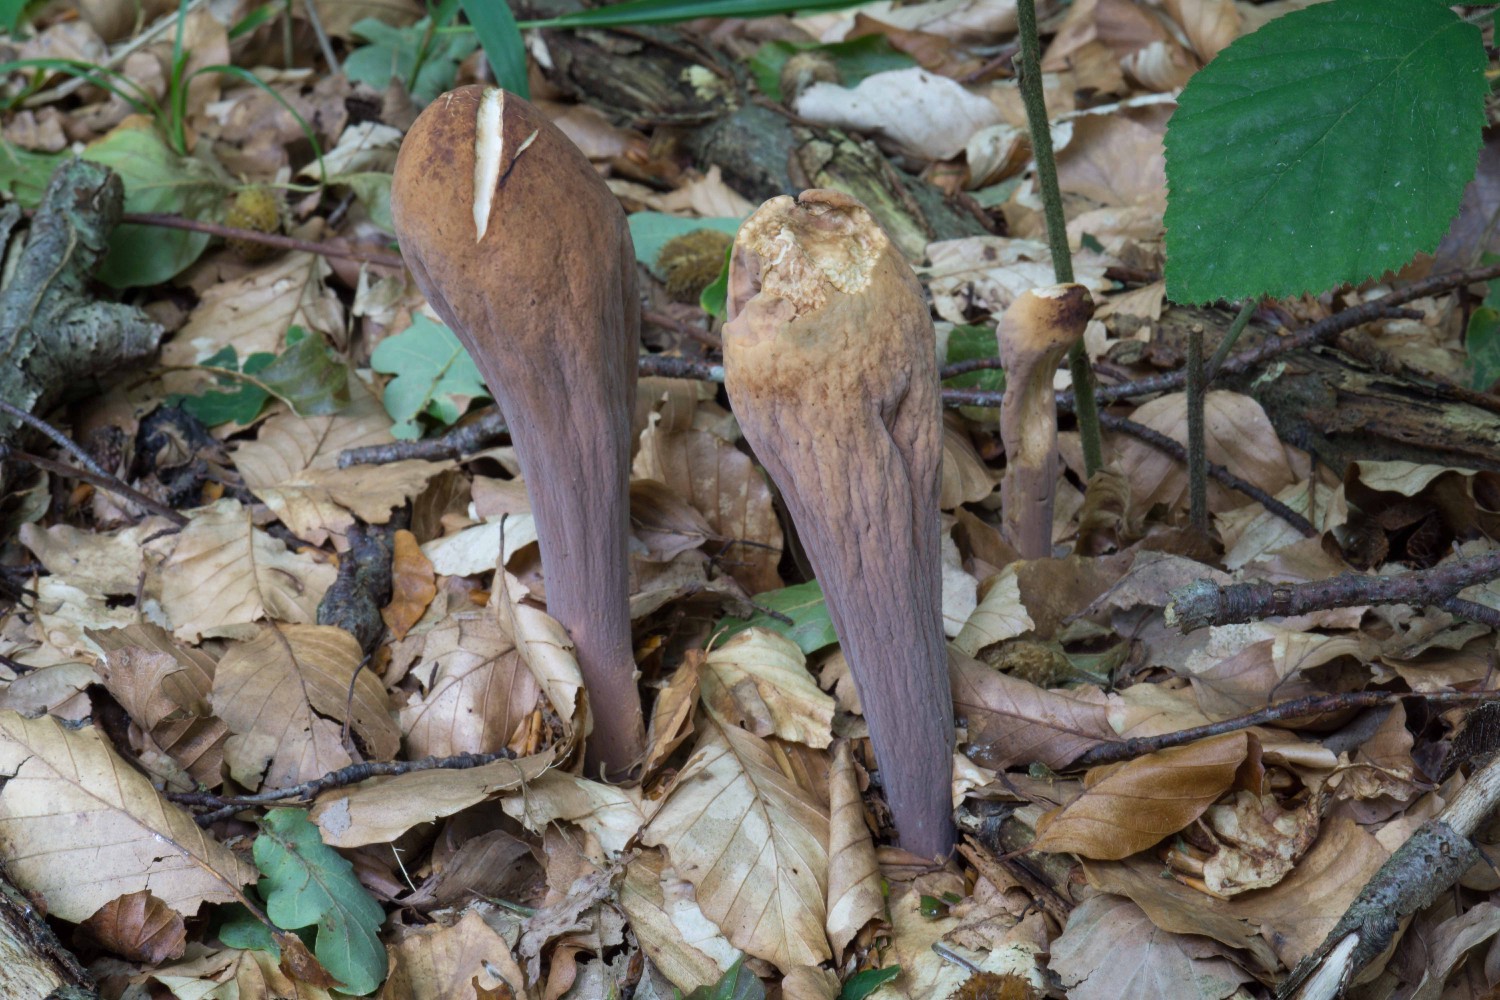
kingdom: Fungi
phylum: Basidiomycota
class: Agaricomycetes
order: Gomphales
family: Clavariadelphaceae
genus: Clavariadelphus
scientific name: Clavariadelphus pistillaris
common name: herkules-kæmpekølle
